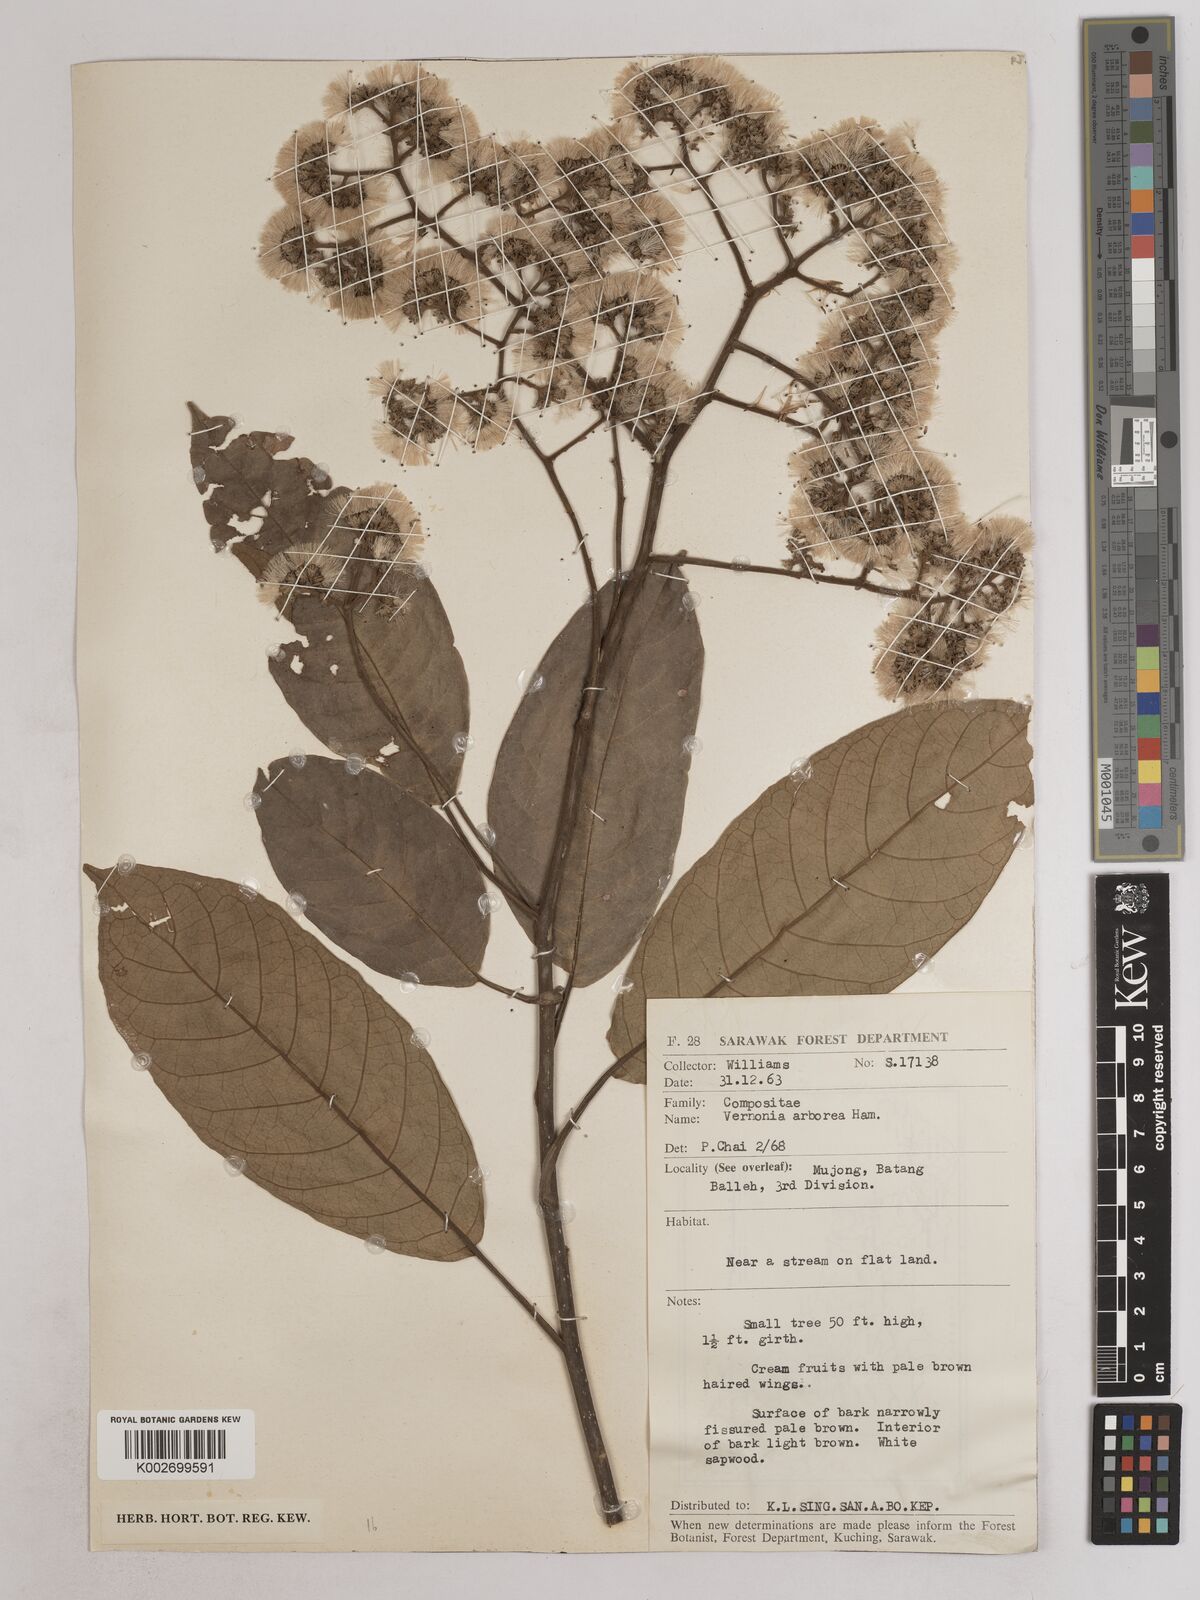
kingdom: Plantae
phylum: Tracheophyta
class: Magnoliopsida
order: Asterales
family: Asteraceae
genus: Strobocalyx
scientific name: Strobocalyx arborea
